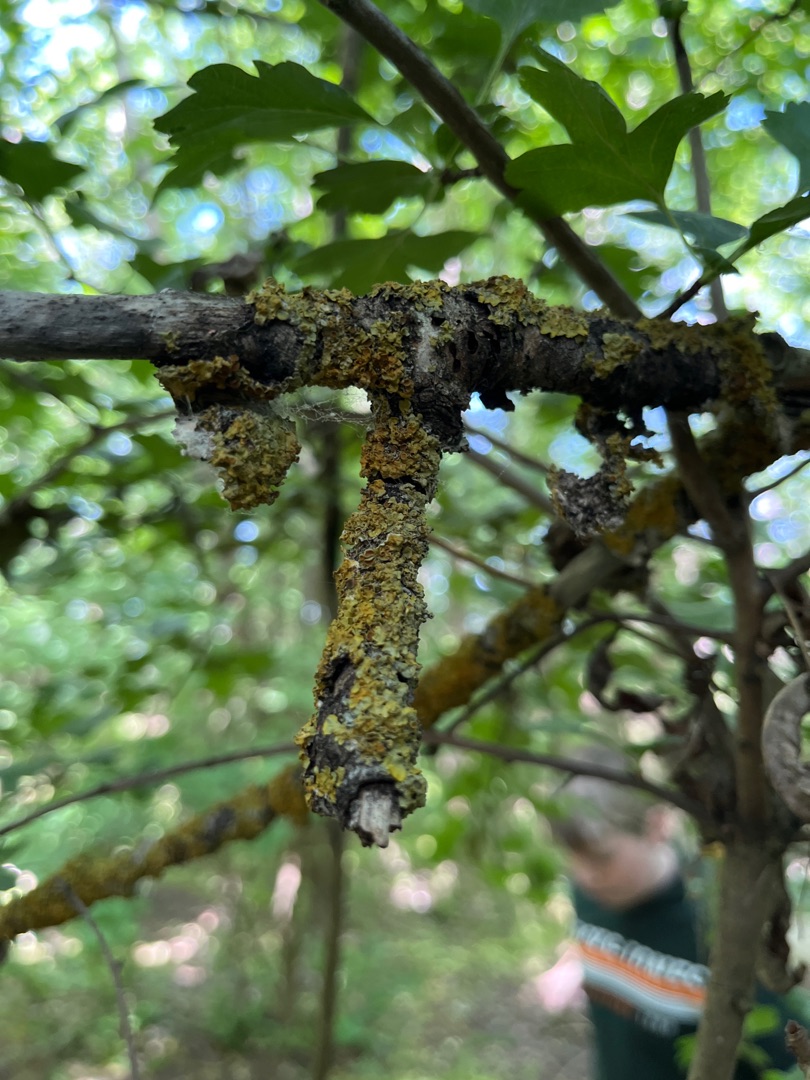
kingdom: Fungi
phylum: Ascomycota
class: Lecanoromycetes
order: Teloschistales
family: Teloschistaceae
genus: Xanthoria
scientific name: Xanthoria parietina
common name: Almindelig væggelav
